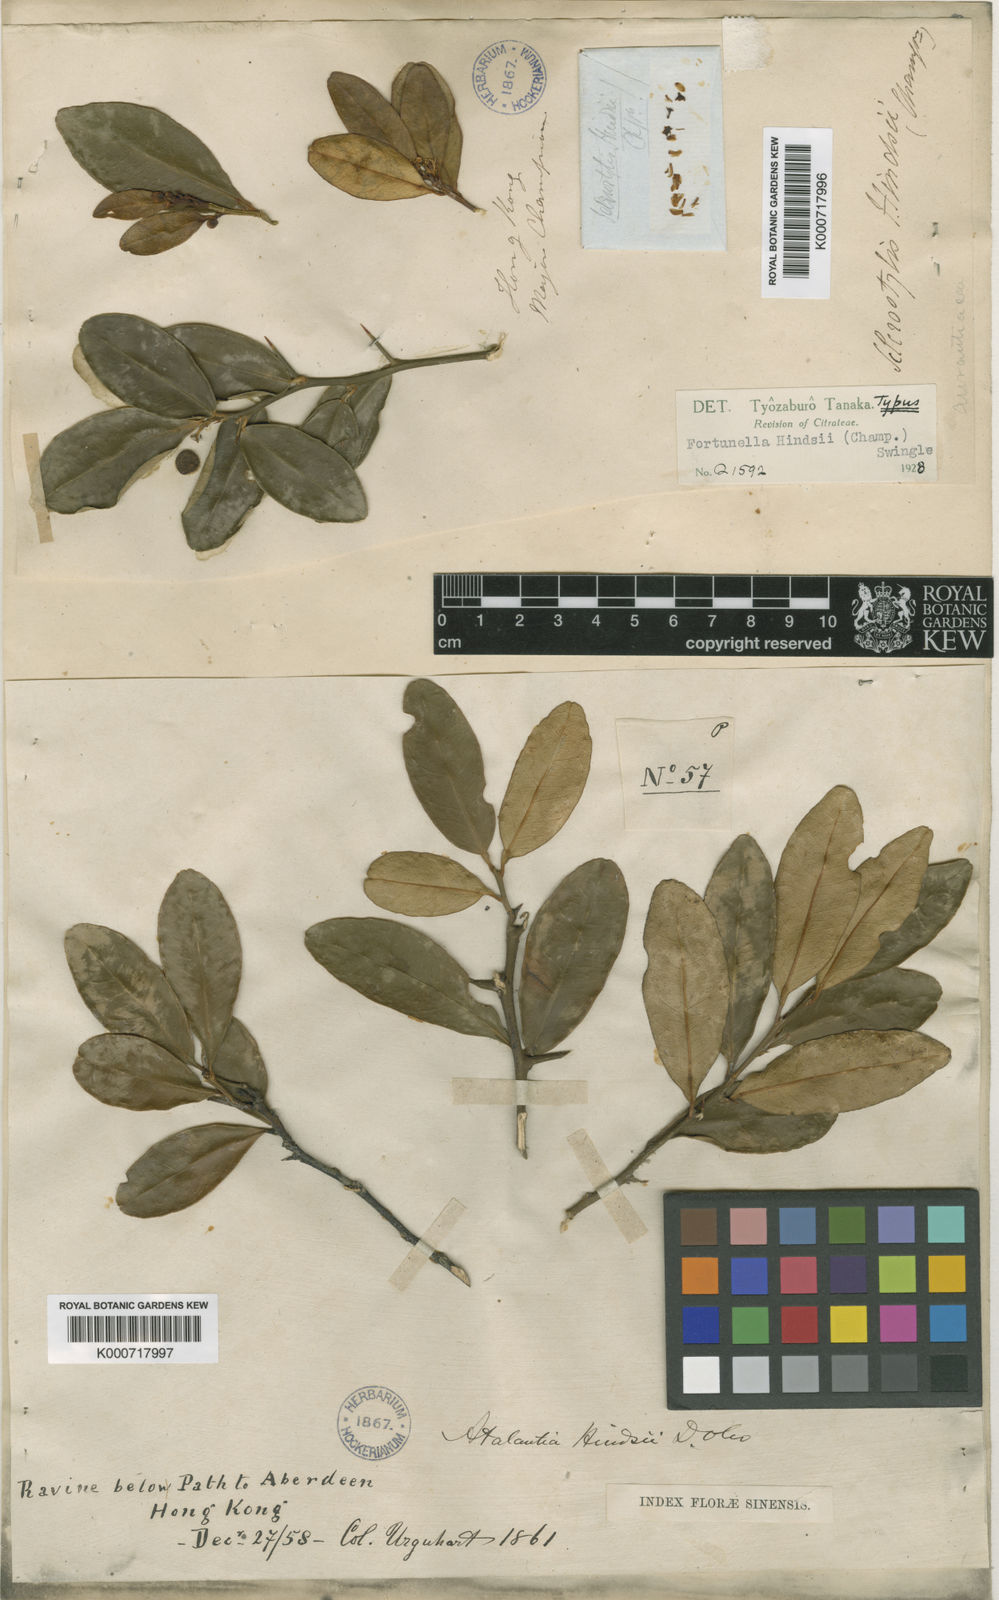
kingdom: Plantae
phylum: Tracheophyta
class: Magnoliopsida
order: Sapindales
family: Rutaceae
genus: Citrus
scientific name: Citrus japonica
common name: Kumquat
